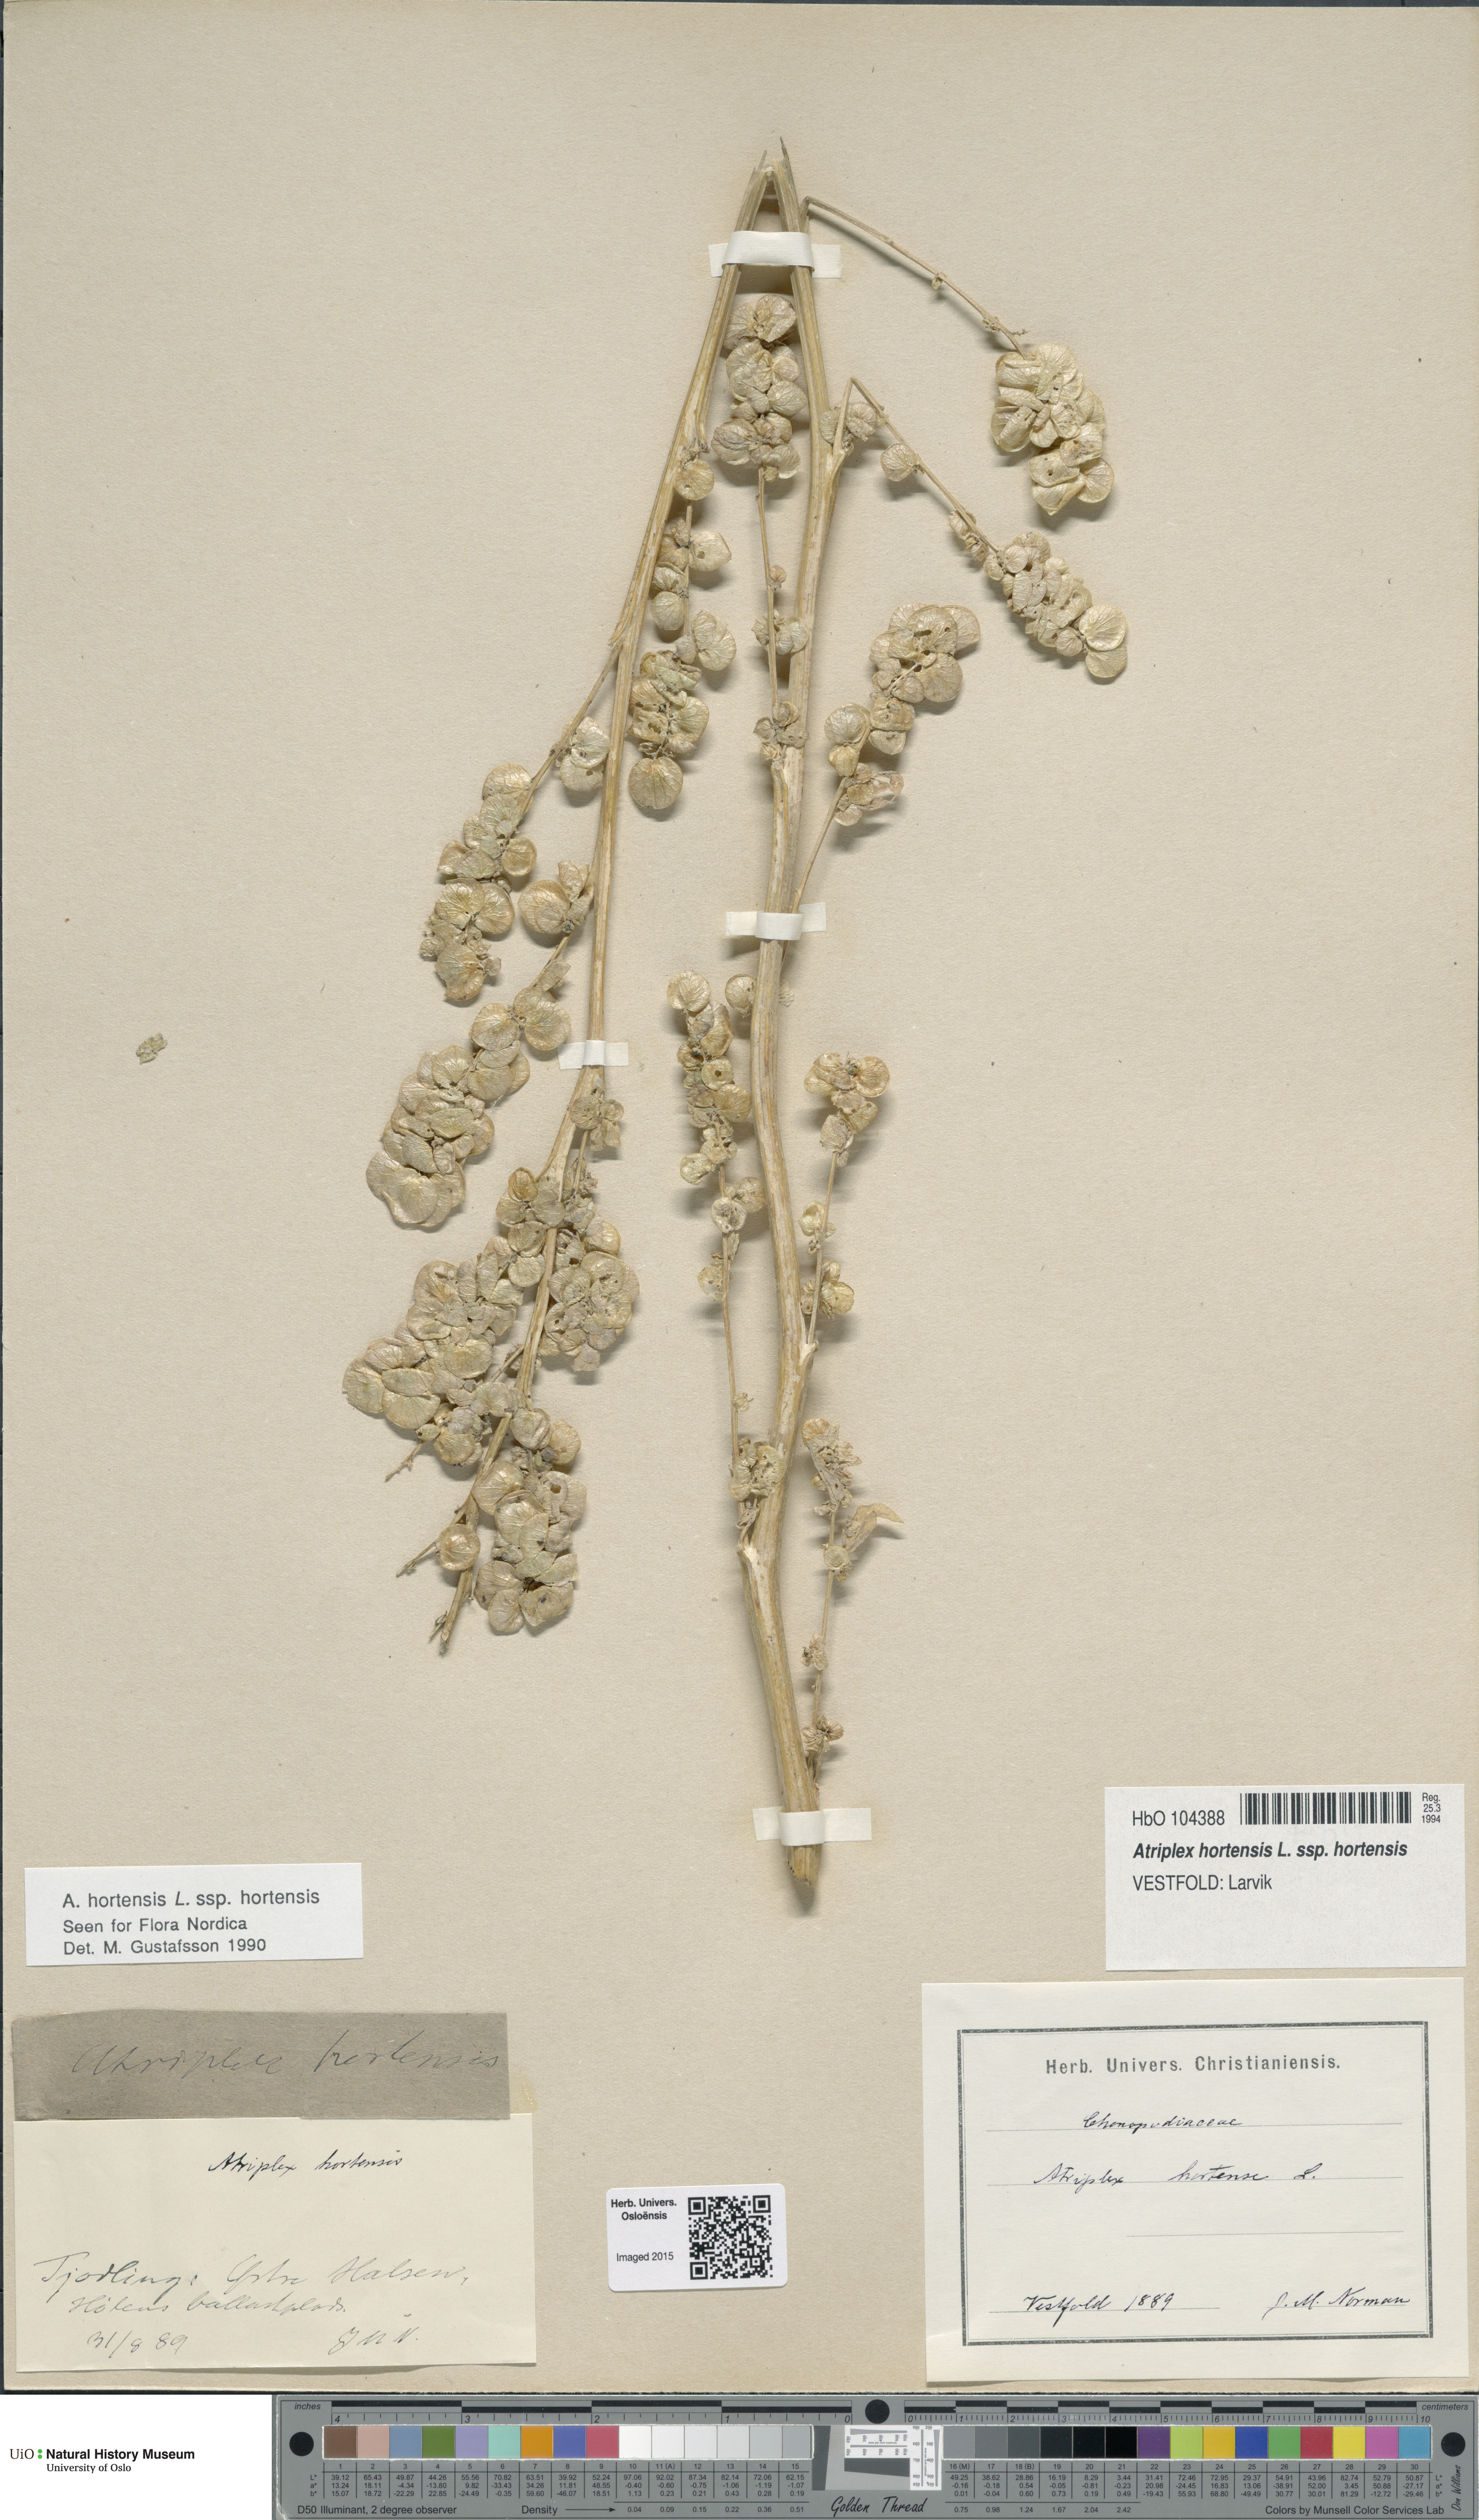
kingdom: Plantae
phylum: Tracheophyta
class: Magnoliopsida
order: Caryophyllales
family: Amaranthaceae
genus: Atriplex
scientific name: Atriplex hortensis
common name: Garden orache
